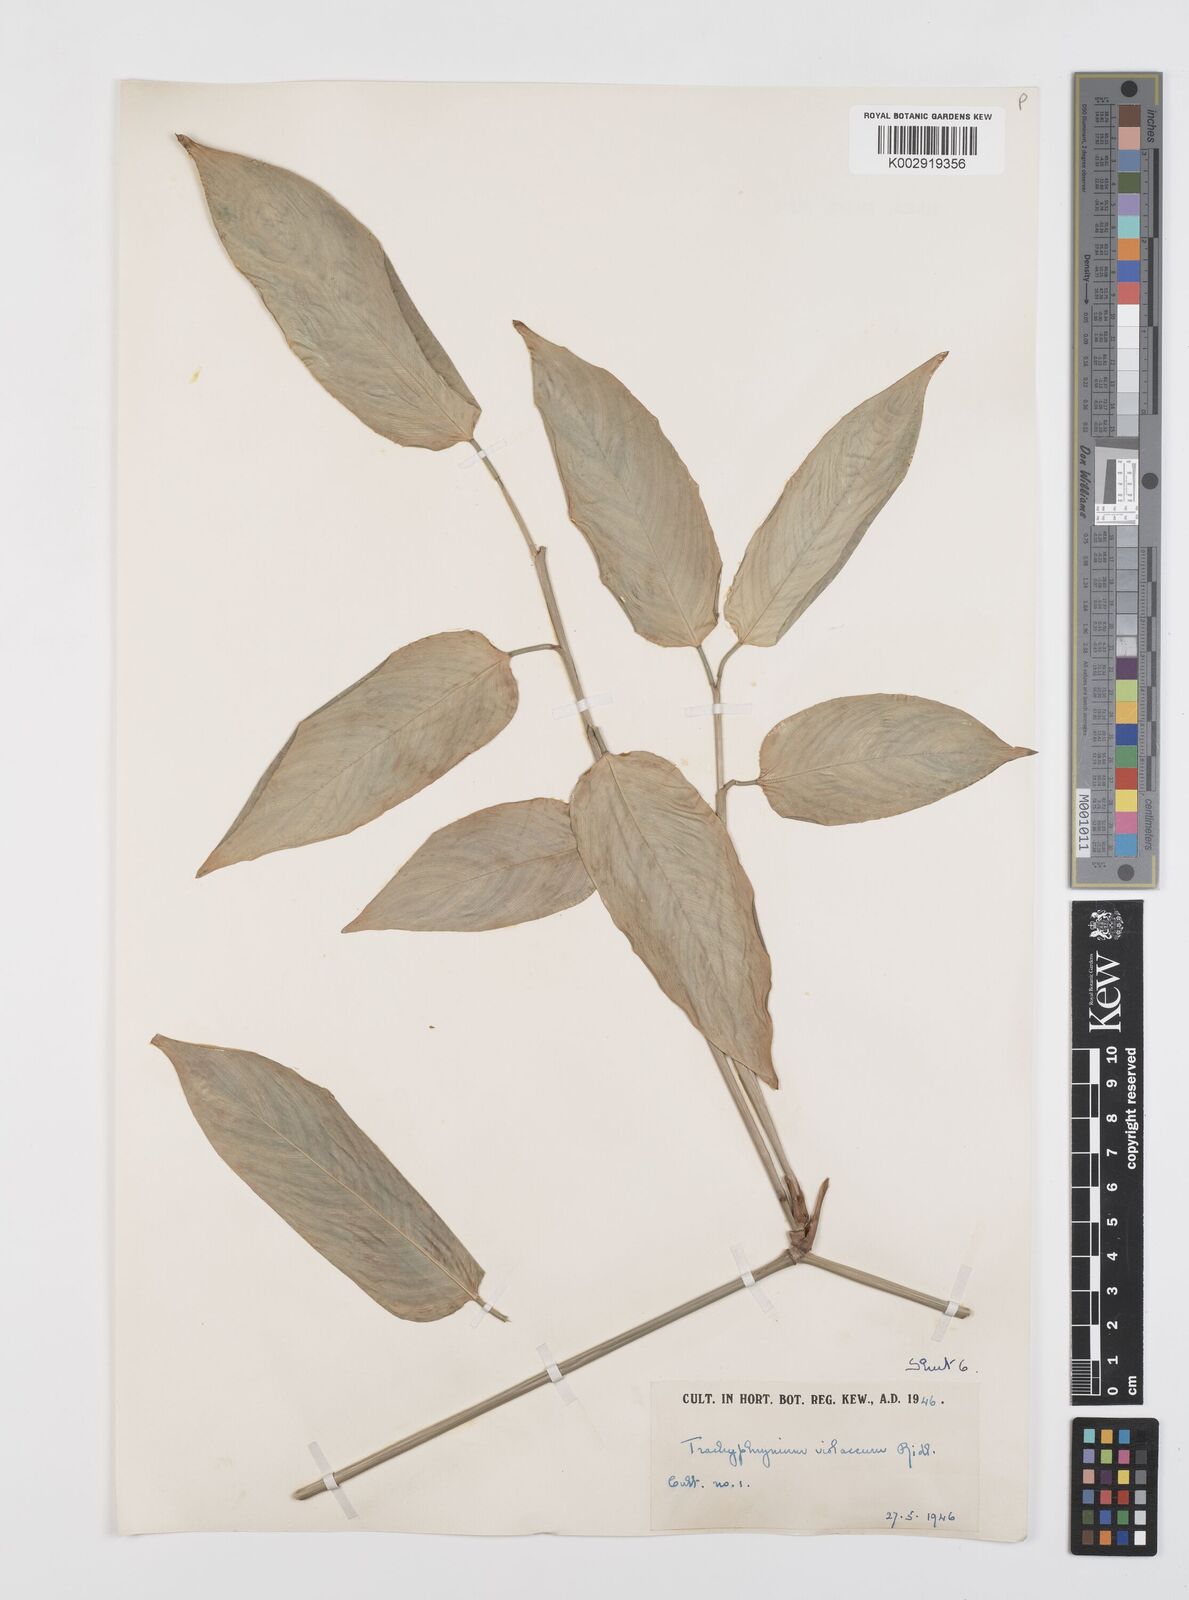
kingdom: Plantae
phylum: Tracheophyta
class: Liliopsida
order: Zingiberales
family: Marantaceae
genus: Hypselodelphys
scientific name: Hypselodelphys poggeana
